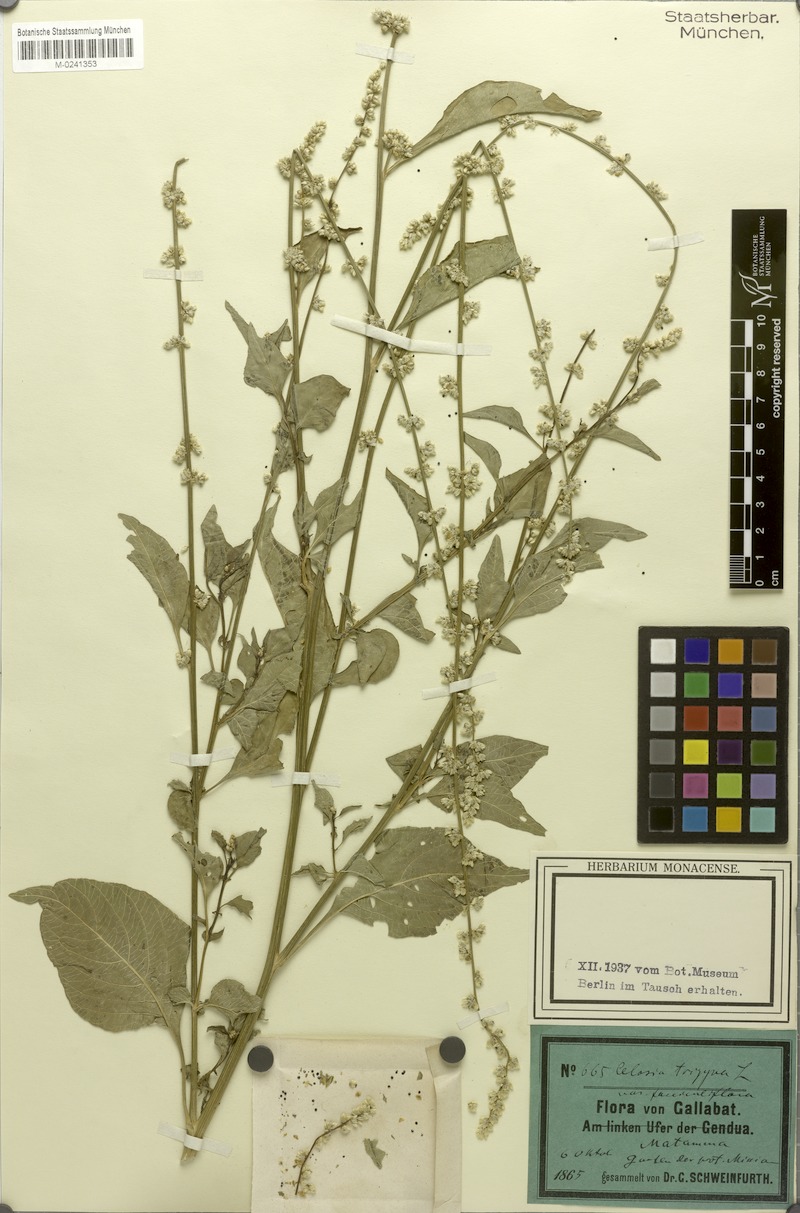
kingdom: Plantae
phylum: Tracheophyta
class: Magnoliopsida
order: Caryophyllales
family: Amaranthaceae
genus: Celosia
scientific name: Celosia trigyna
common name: Woolflower
